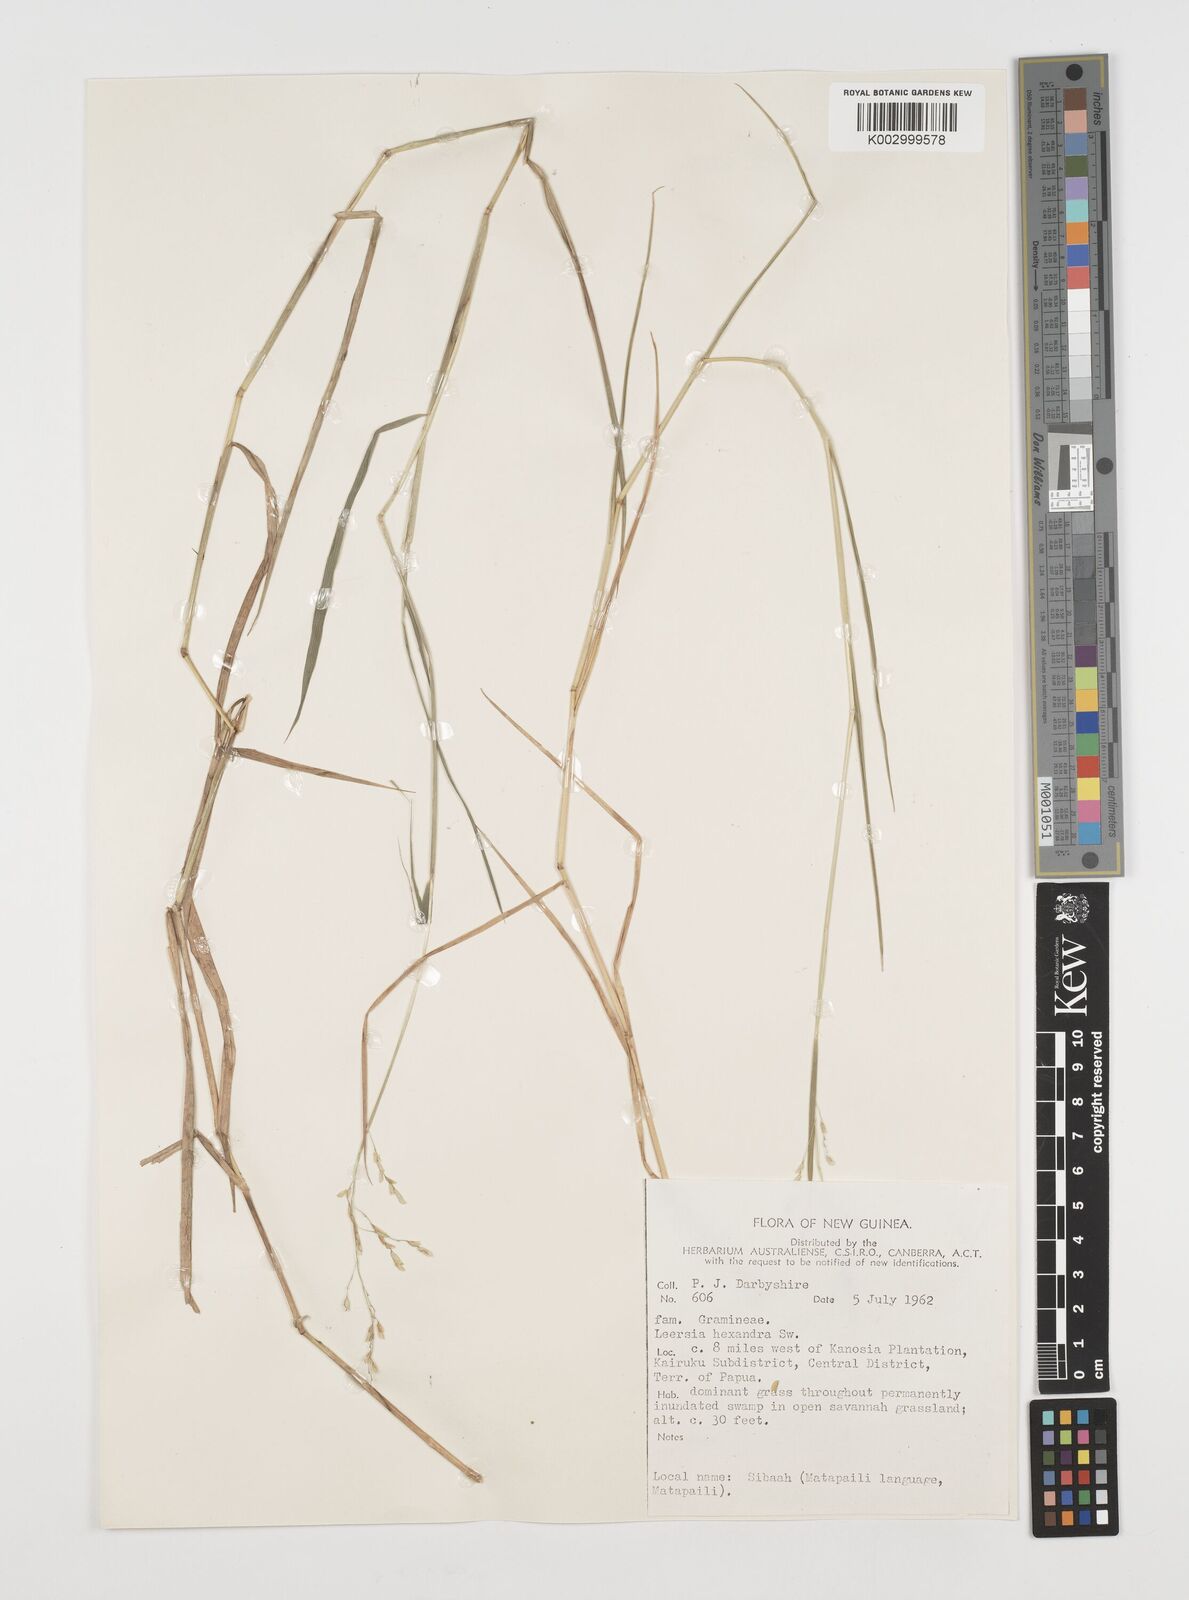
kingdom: Plantae
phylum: Tracheophyta
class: Liliopsida
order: Poales
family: Poaceae
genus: Leersia
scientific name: Leersia hexandra
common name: Southern cut grass
